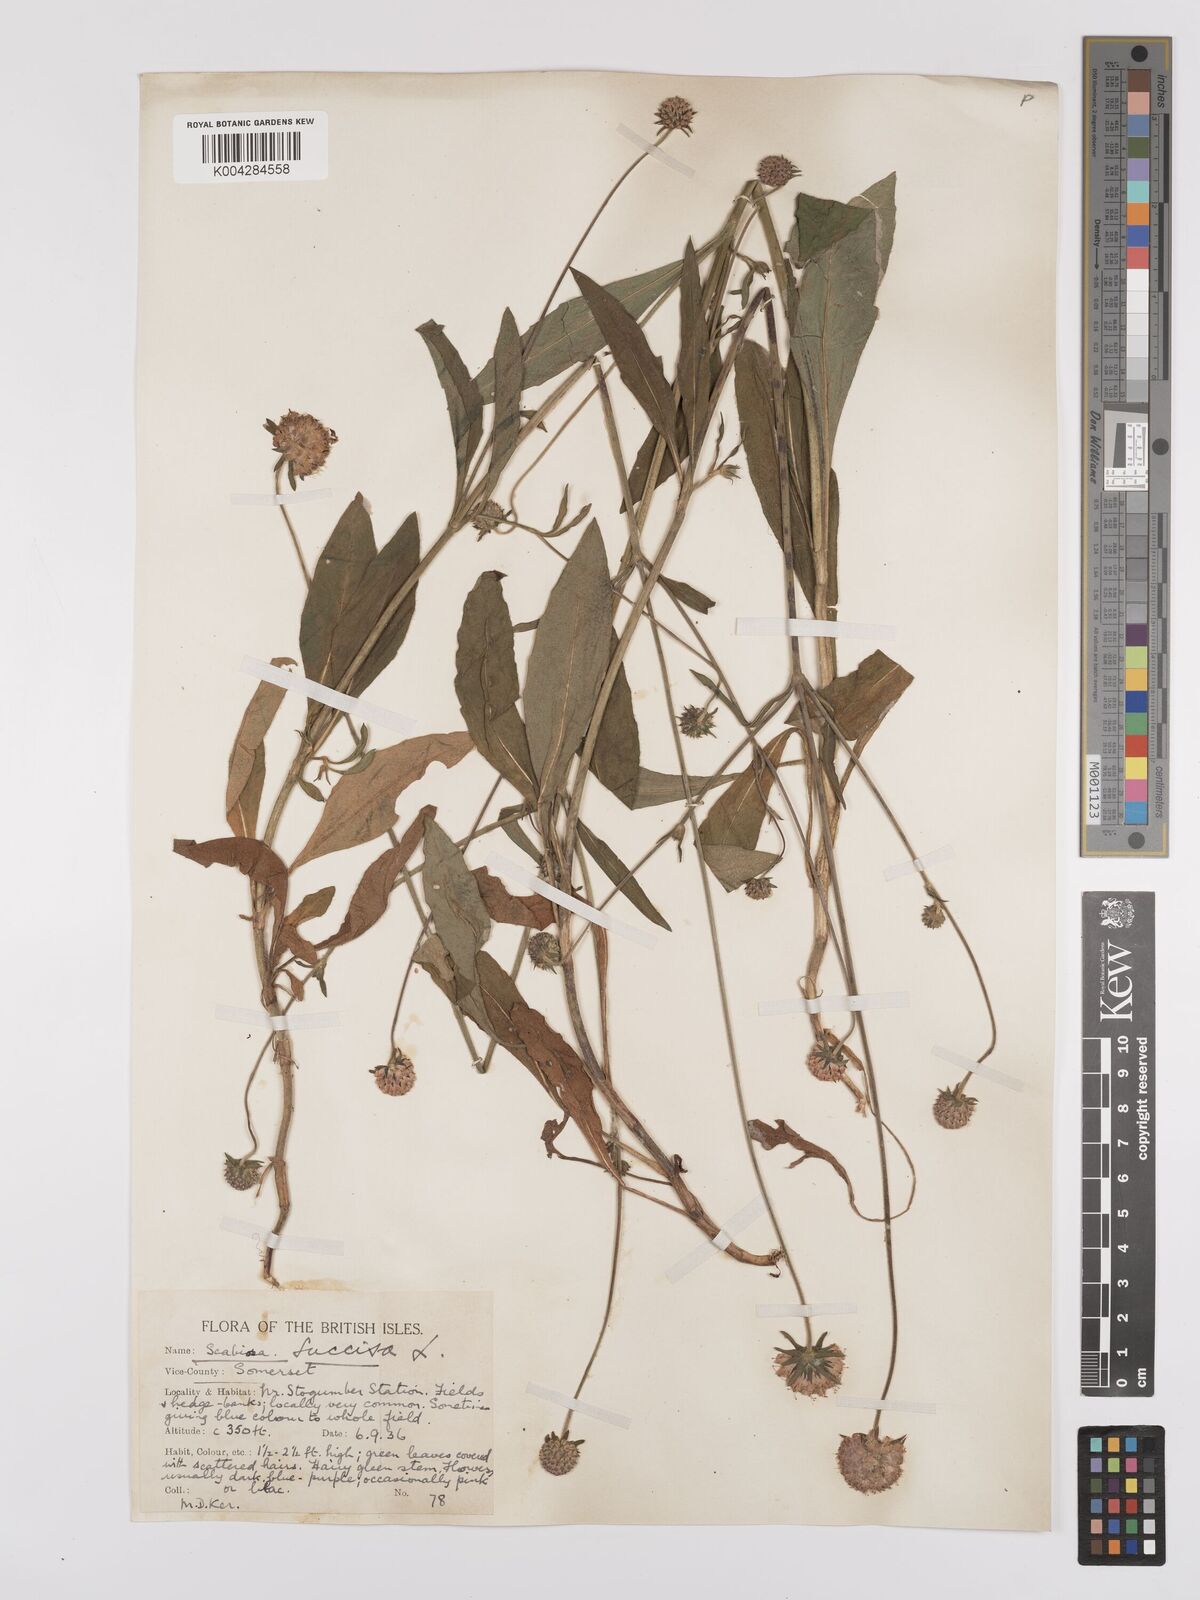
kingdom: Plantae
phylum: Tracheophyta
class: Magnoliopsida
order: Dipsacales
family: Caprifoliaceae
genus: Succisa
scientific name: Succisa pratensis
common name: Devil's-bit
